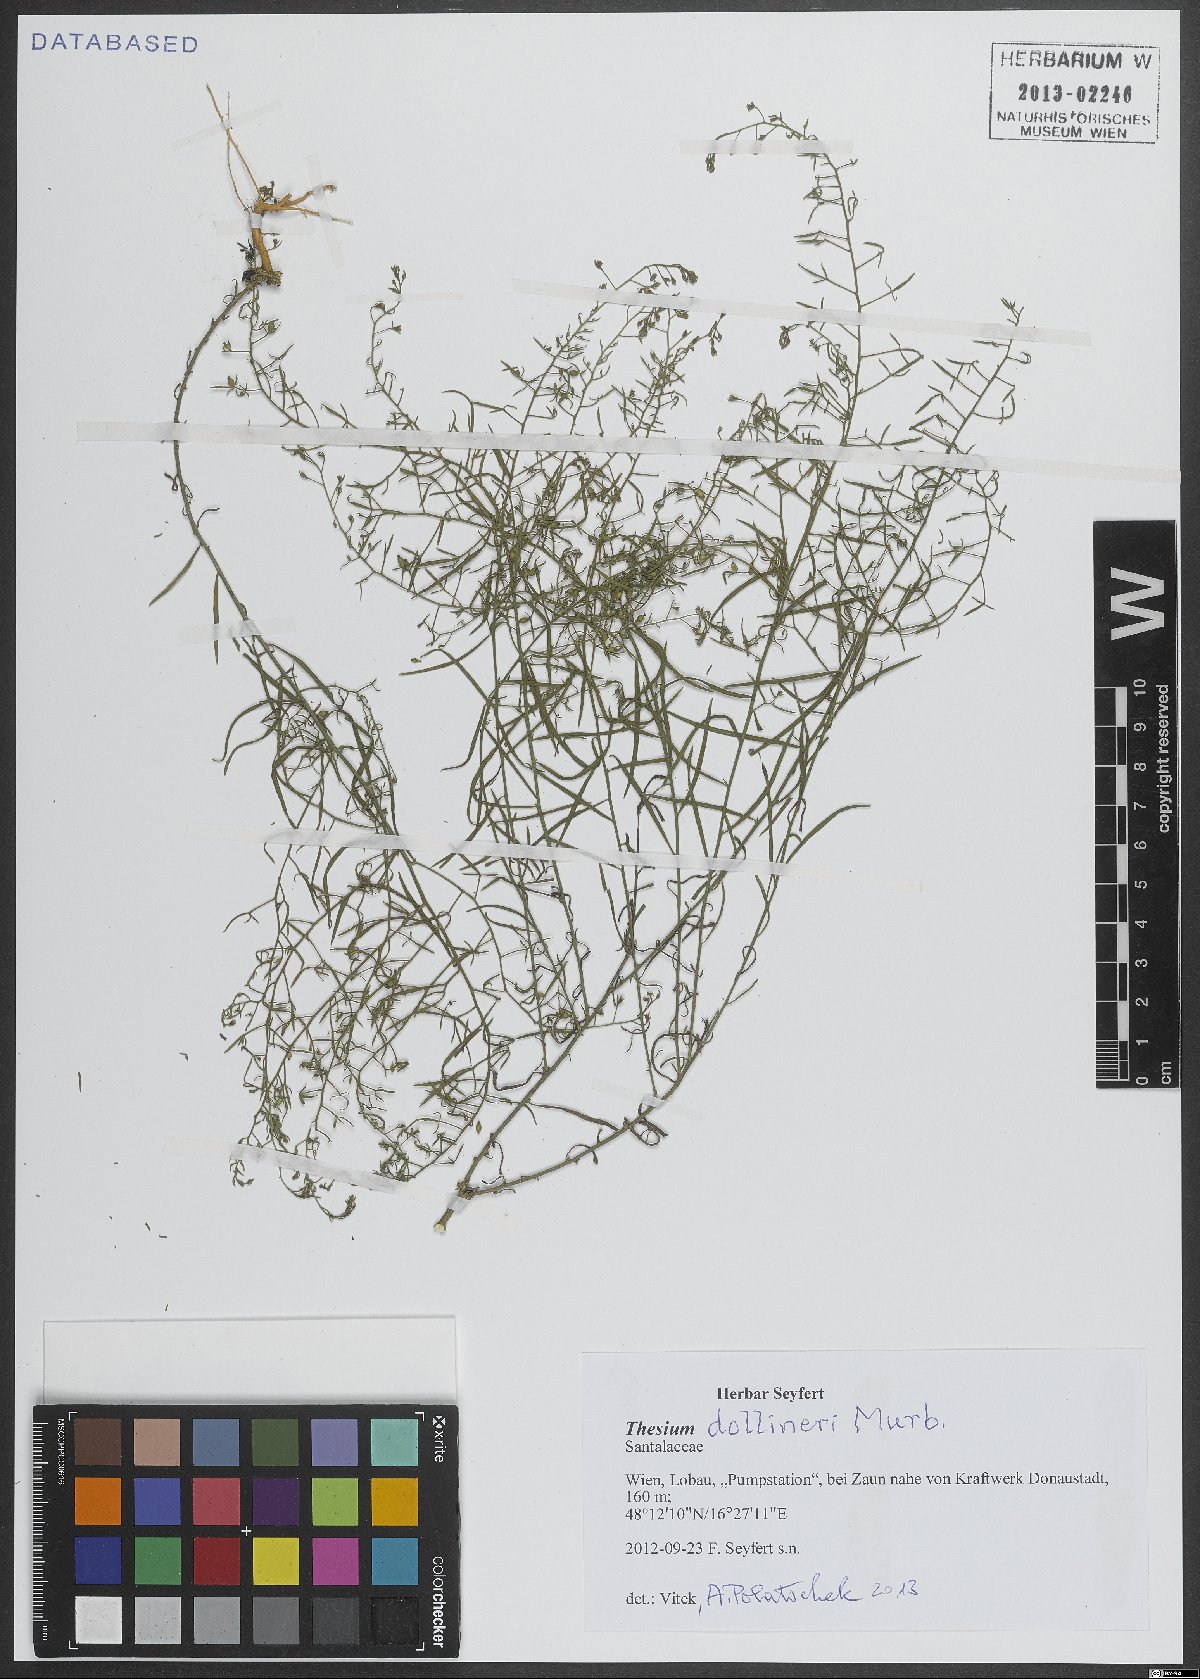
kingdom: Plantae
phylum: Tracheophyta
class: Magnoliopsida
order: Santalales
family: Thesiaceae
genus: Thesium
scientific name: Thesium dollineri
